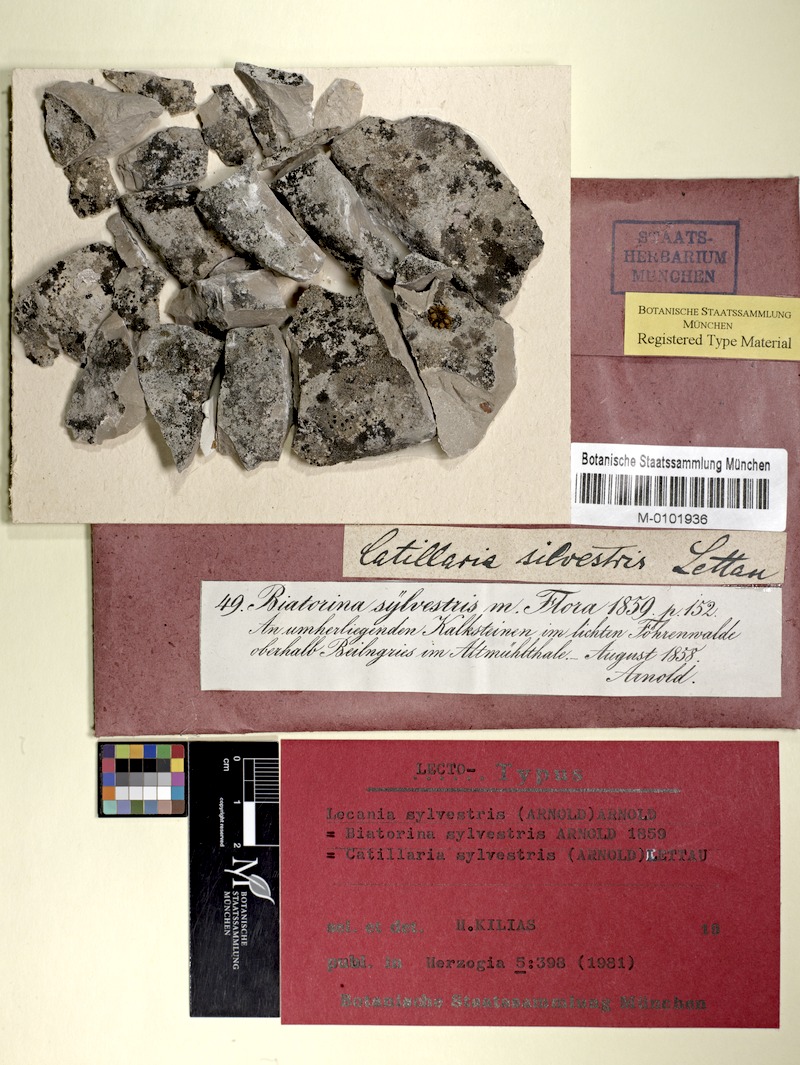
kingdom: Fungi
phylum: Ascomycota
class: Lecanoromycetes
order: Lecanorales
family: Ramalinaceae
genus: Lecania
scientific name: Lecania sylvestris
